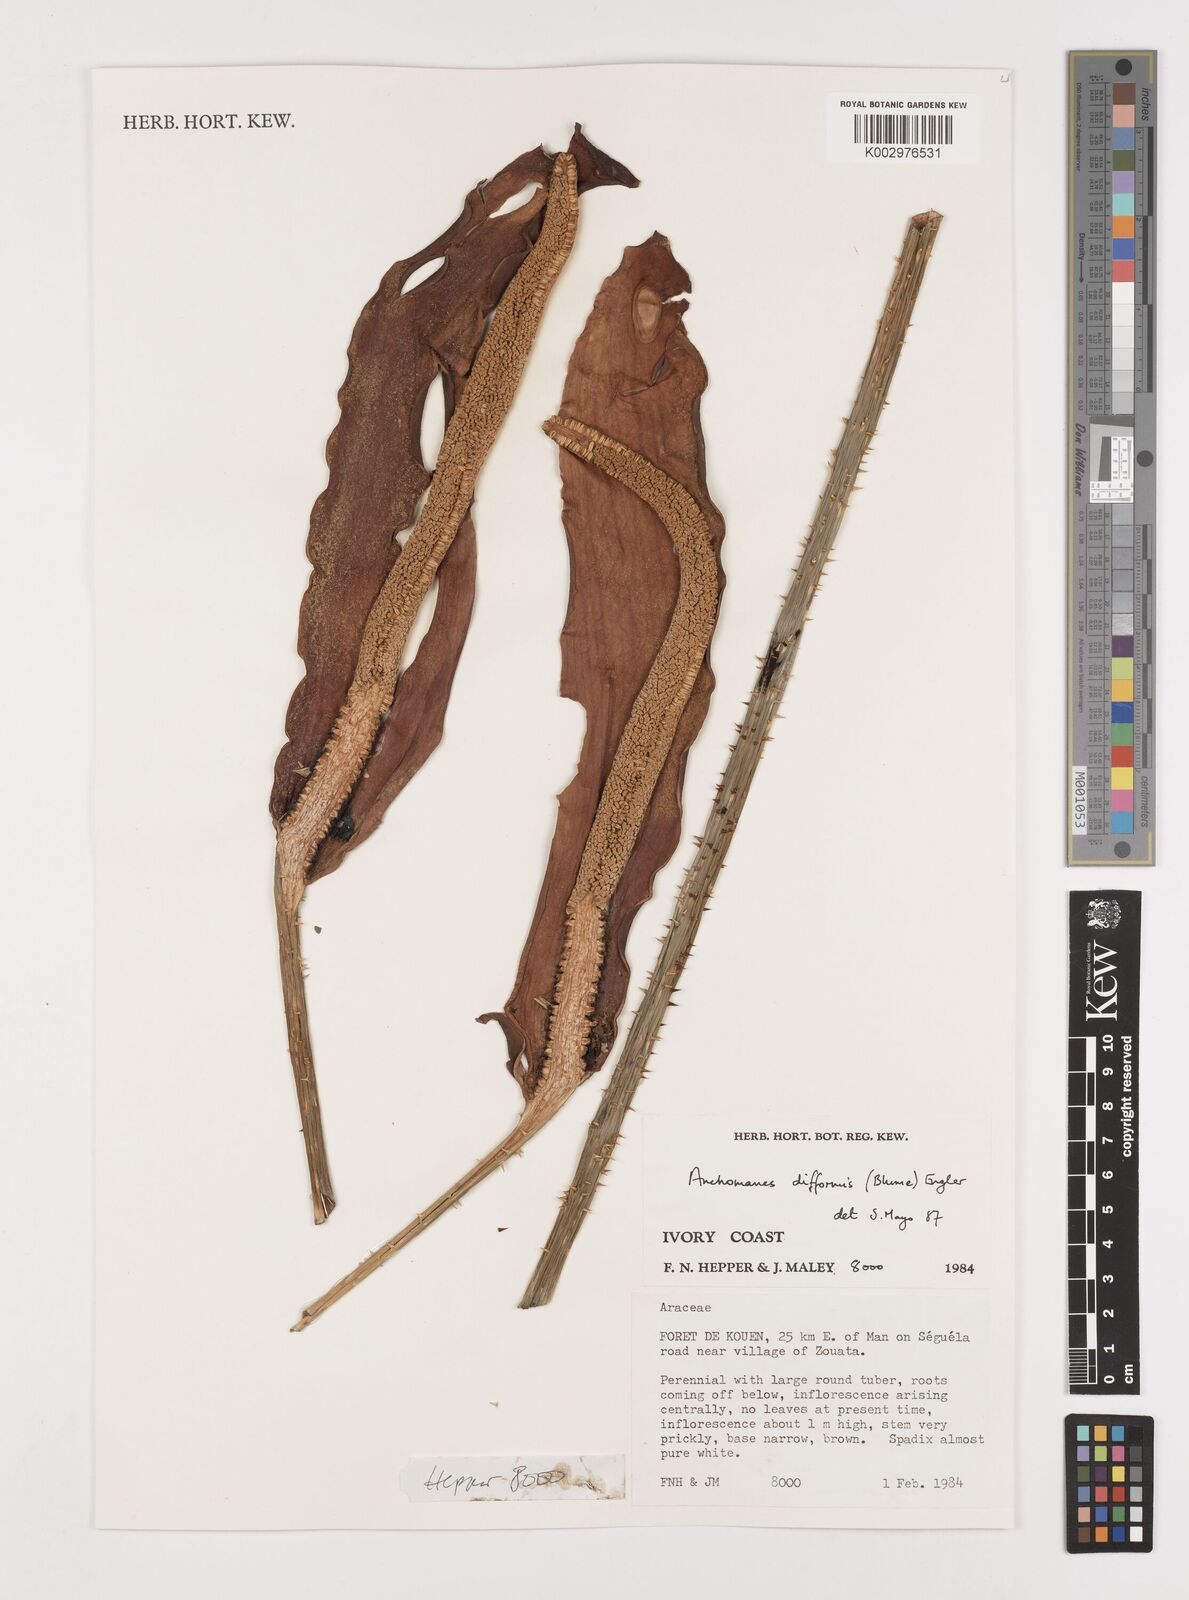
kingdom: Plantae
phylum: Tracheophyta
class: Liliopsida
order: Alismatales
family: Araceae
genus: Anchomanes
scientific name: Anchomanes difformis
